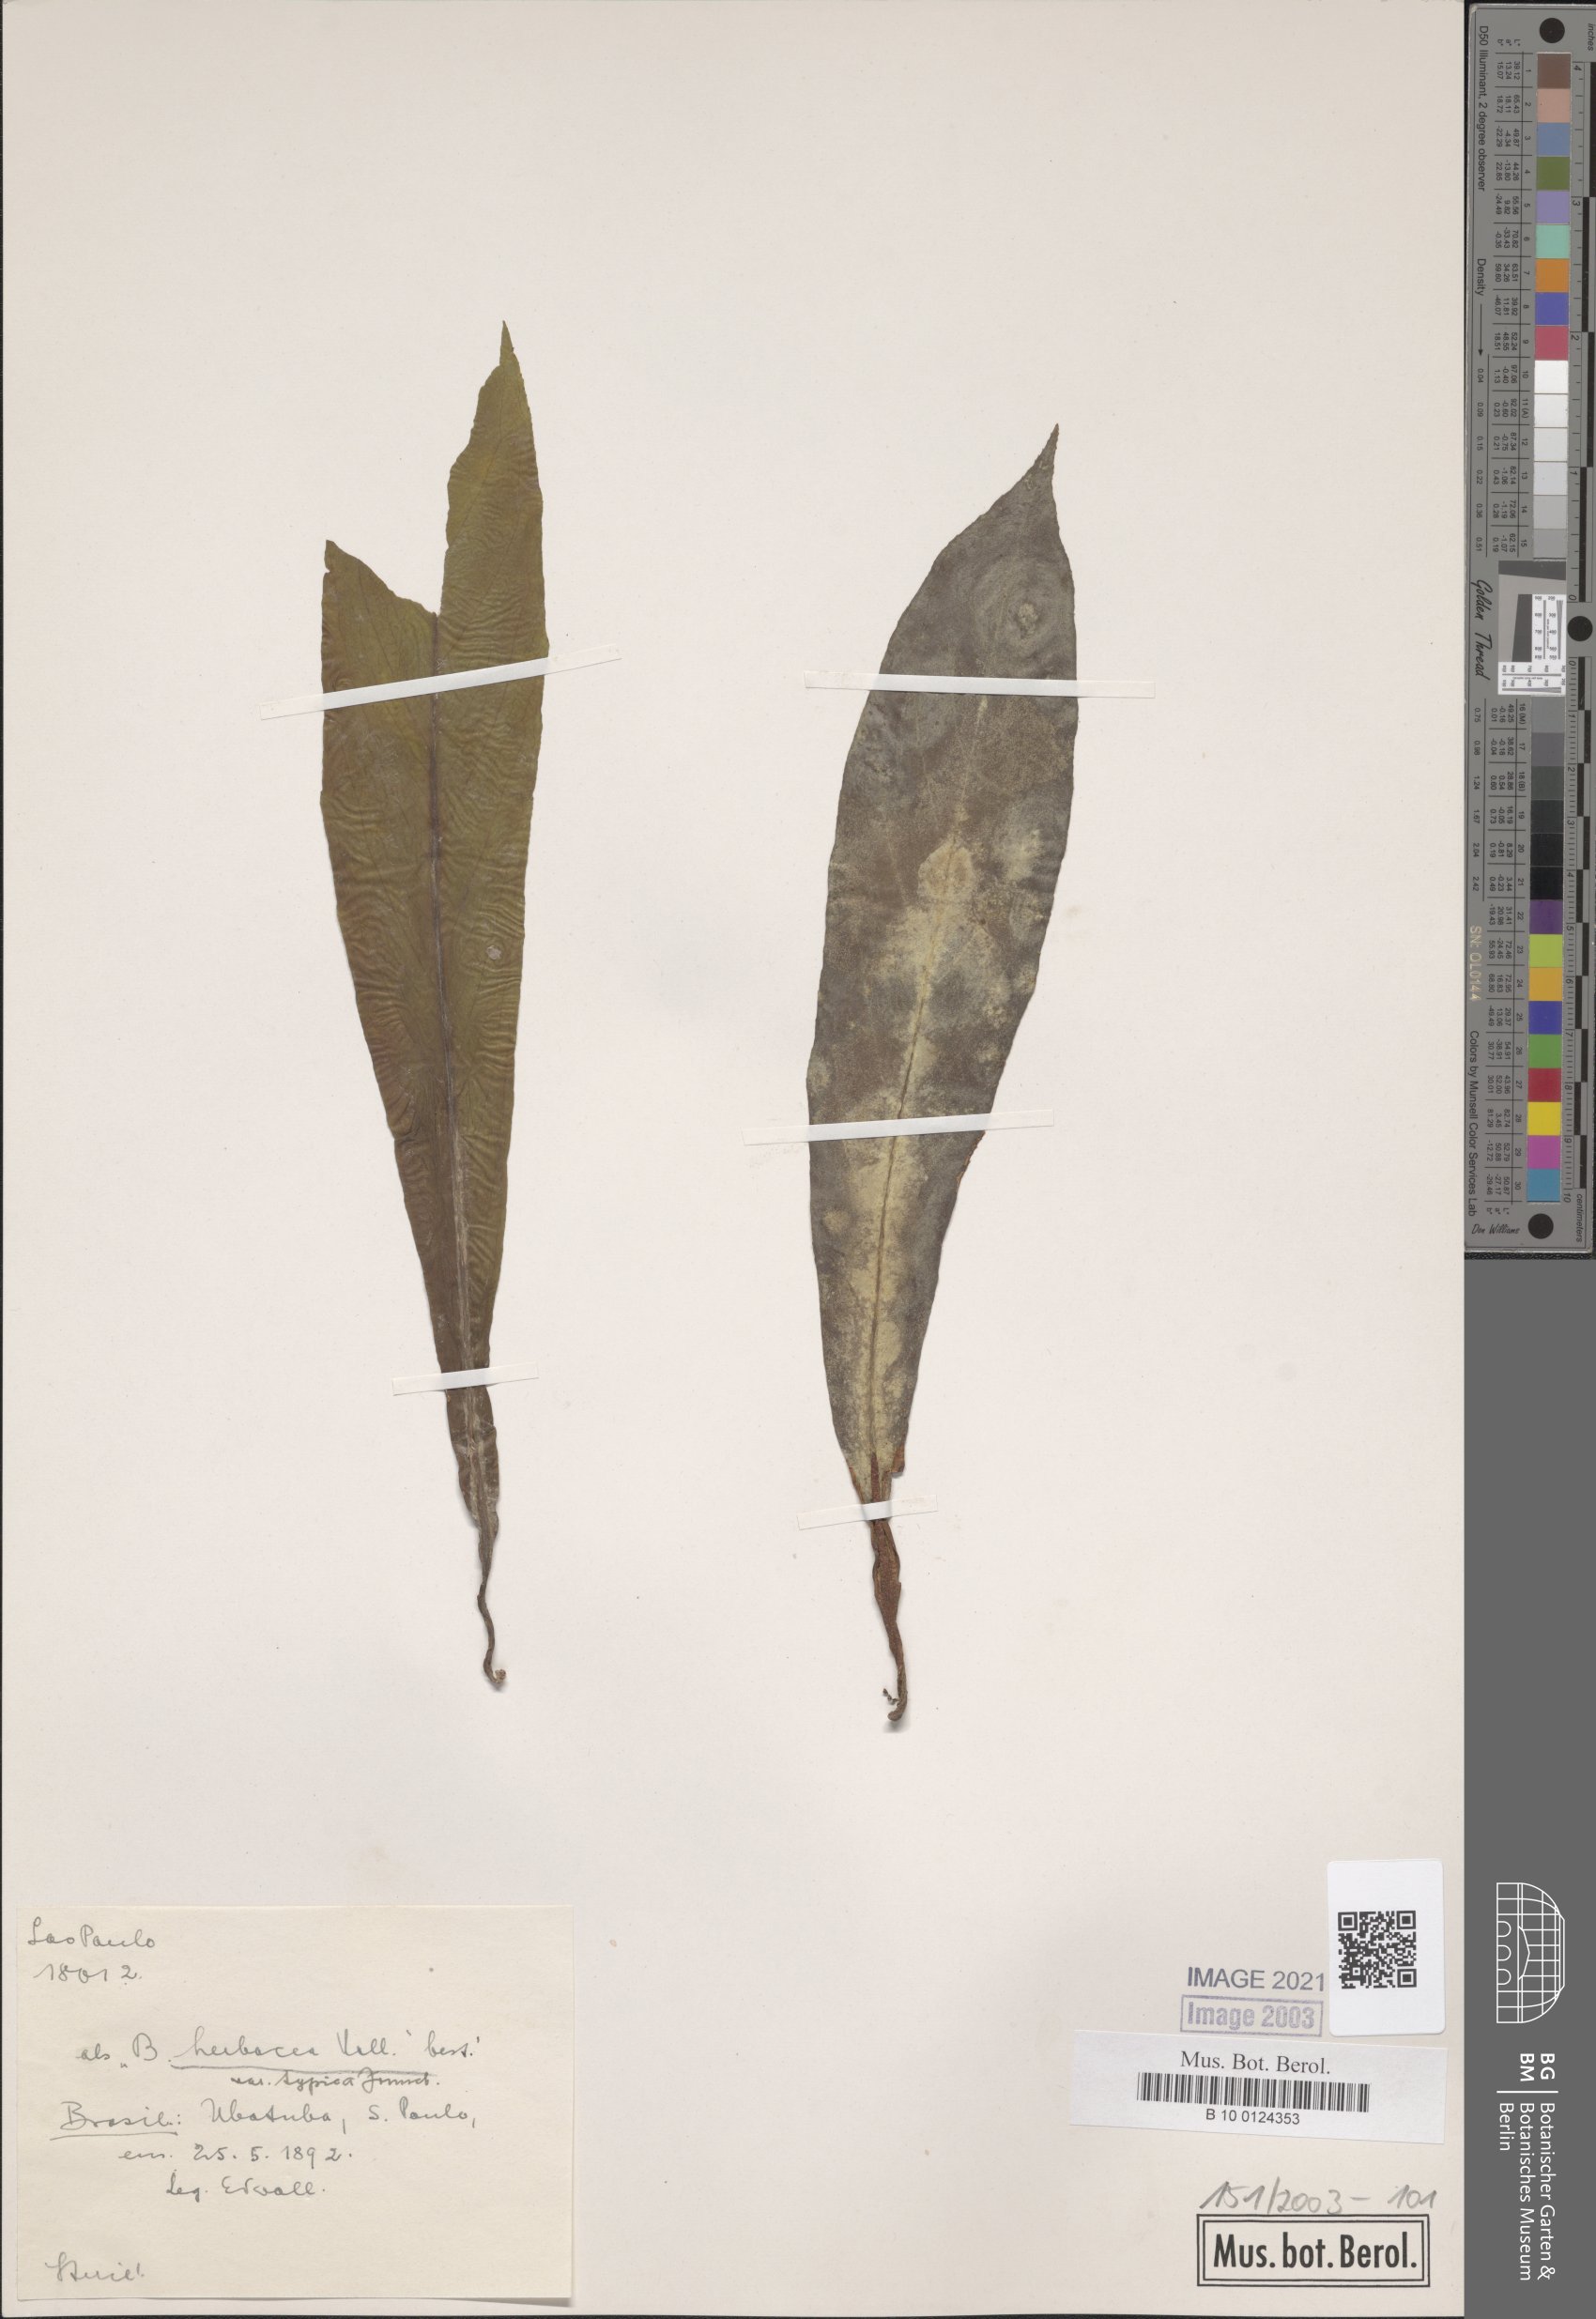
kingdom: Plantae
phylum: Tracheophyta
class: Magnoliopsida
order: Cucurbitales
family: Begoniaceae
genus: Begonia
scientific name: Begonia herbacea
